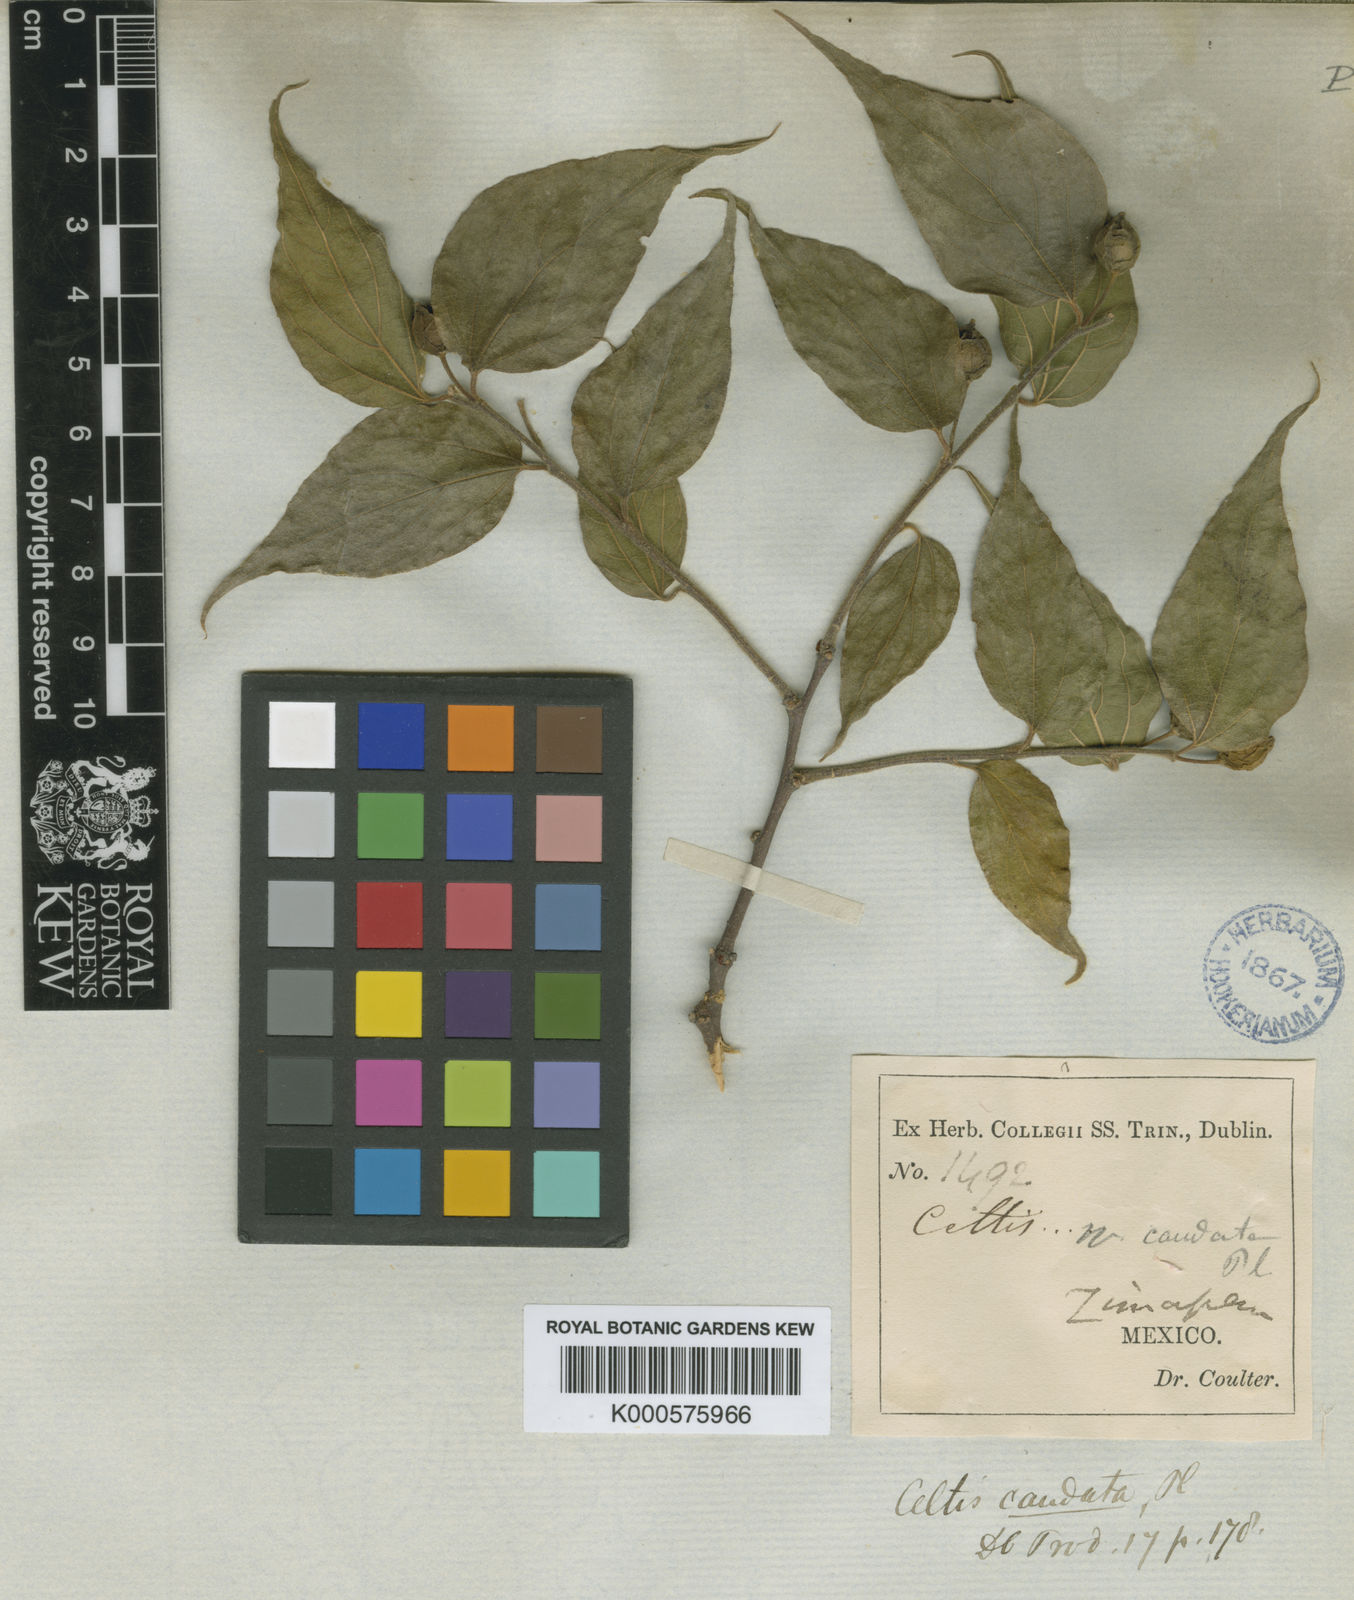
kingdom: Plantae
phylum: Tracheophyta
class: Magnoliopsida
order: Rosales
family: Cannabaceae
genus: Celtis
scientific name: Celtis caudata
